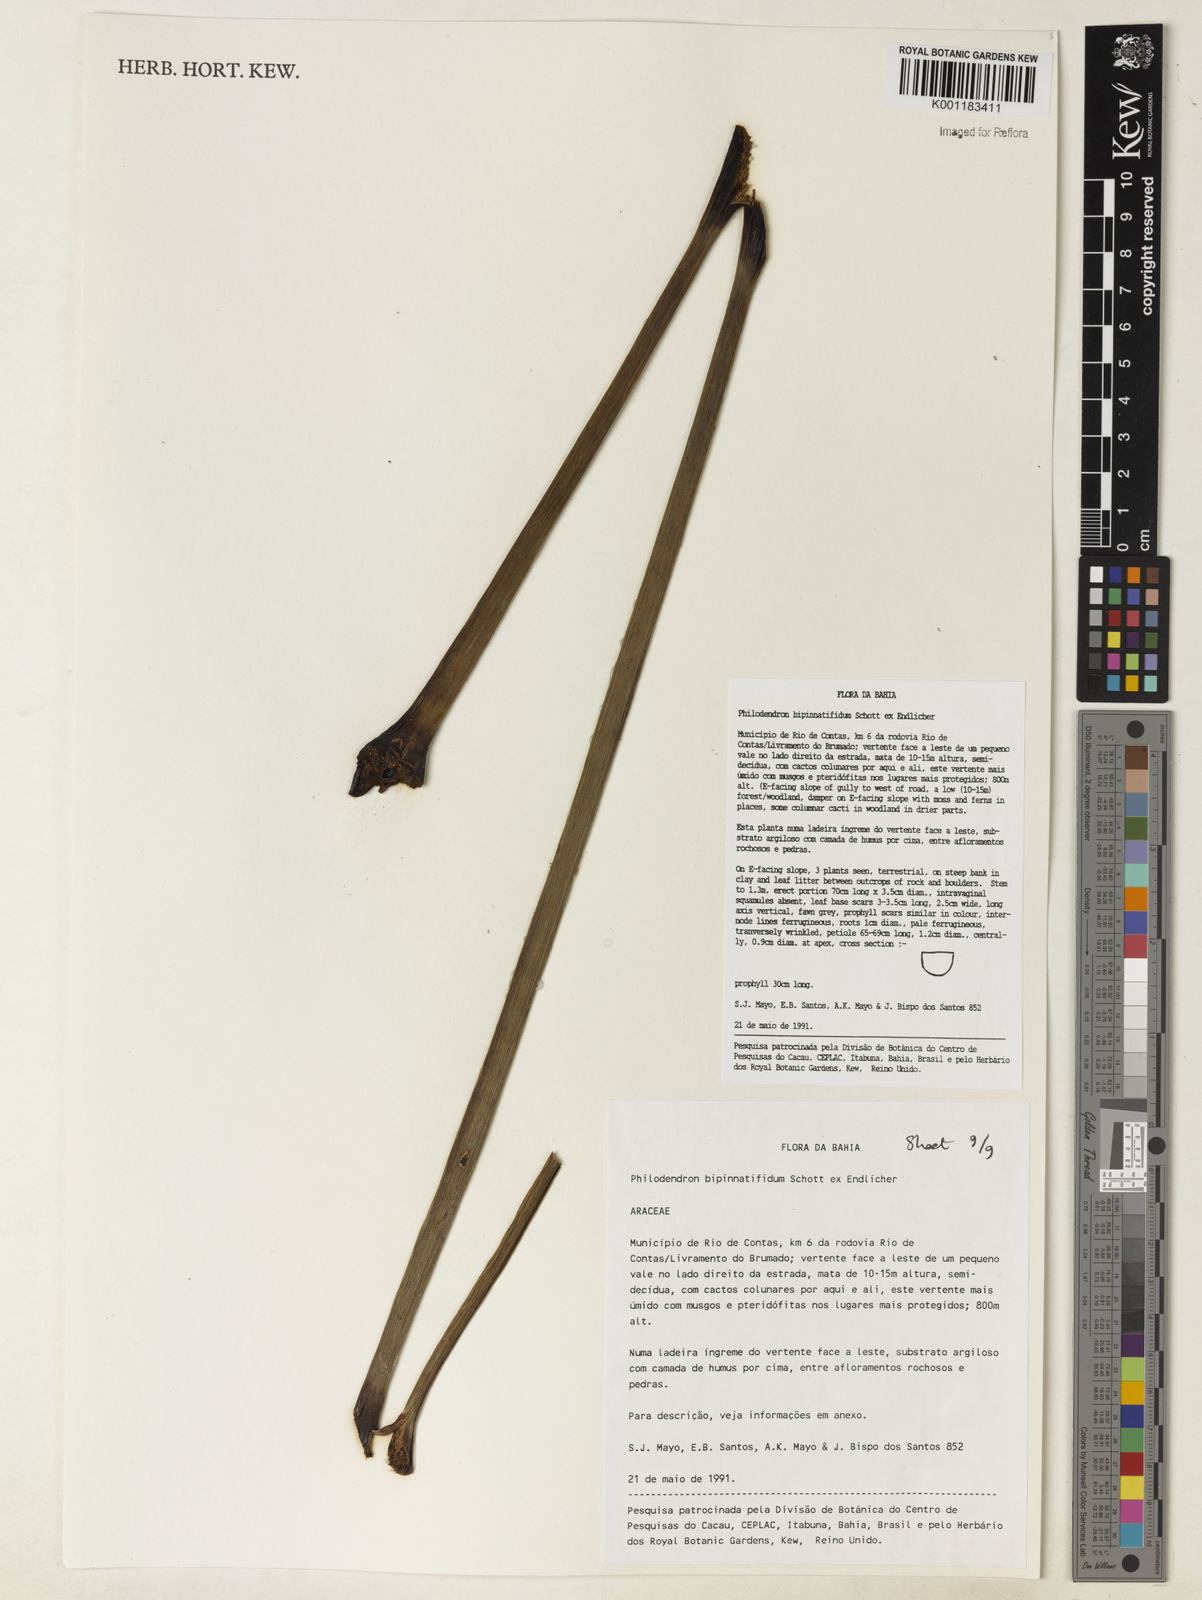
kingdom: Plantae
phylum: Tracheophyta
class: Liliopsida
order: Alismatales
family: Araceae
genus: Philodendron
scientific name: Philodendron
